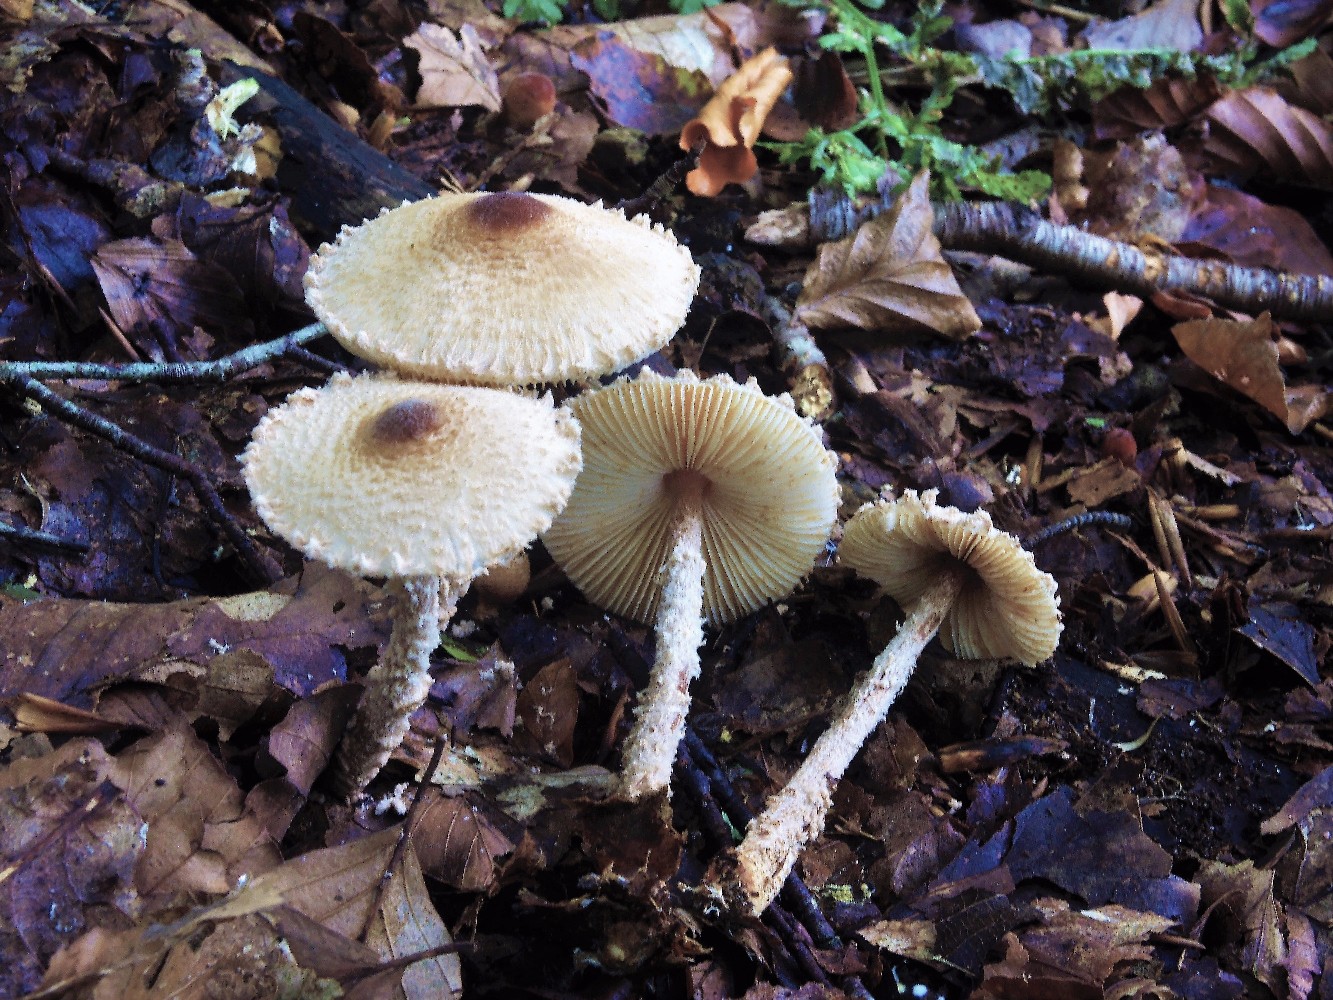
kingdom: Fungi
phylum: Basidiomycota
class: Agaricomycetes
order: Agaricales
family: Agaricaceae
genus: Lepiota
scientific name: Lepiota magnispora
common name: gulfnugget parasolhat
